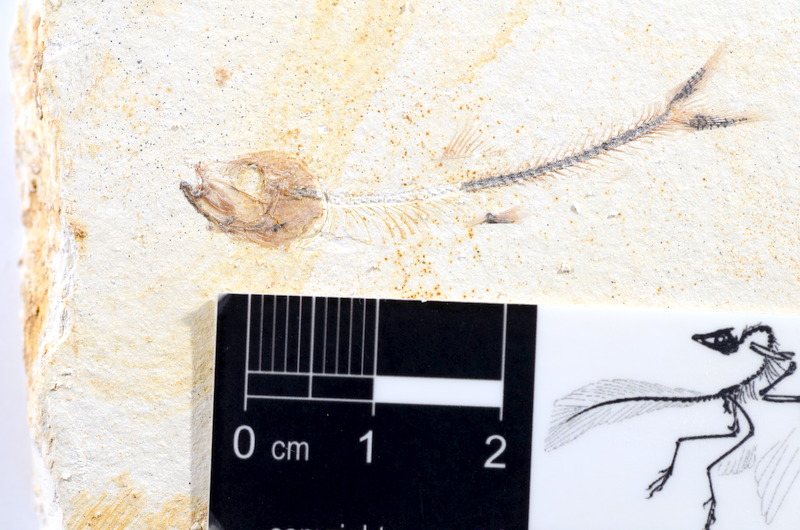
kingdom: Animalia
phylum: Chordata
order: Salmoniformes
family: Orthogonikleithridae
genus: Orthogonikleithrus
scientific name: Orthogonikleithrus hoelli
